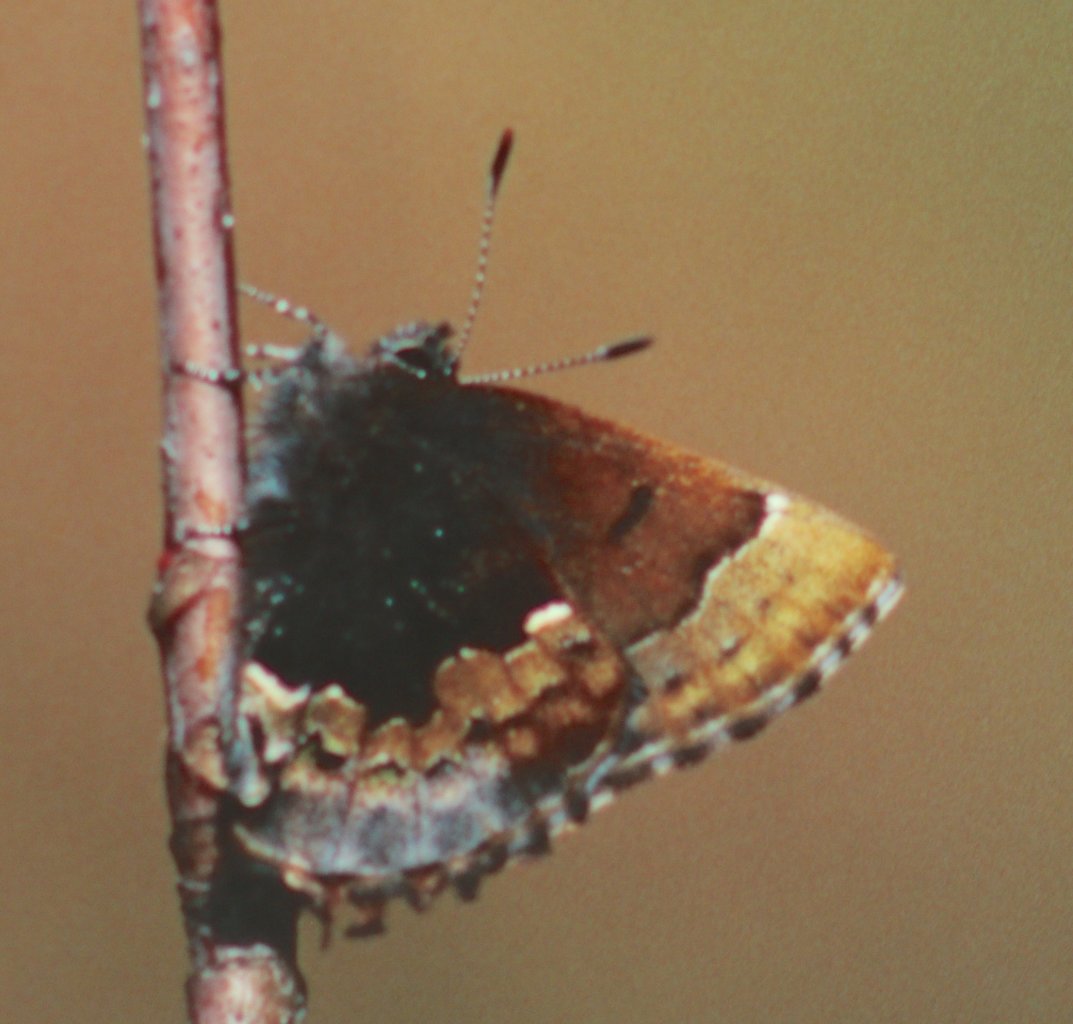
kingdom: Animalia
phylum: Arthropoda
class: Insecta
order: Lepidoptera
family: Lycaenidae
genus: Incisalia
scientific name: Incisalia henrici
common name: Henry's Elfin
